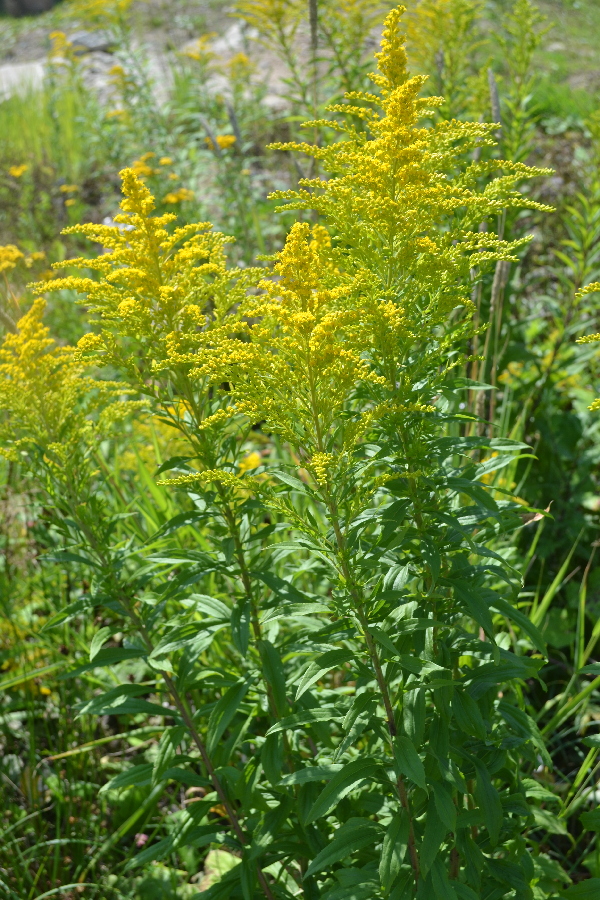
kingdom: Plantae
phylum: Tracheophyta
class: Magnoliopsida
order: Asterales
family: Asteraceae
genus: Solidago
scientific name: Solidago canadensis
